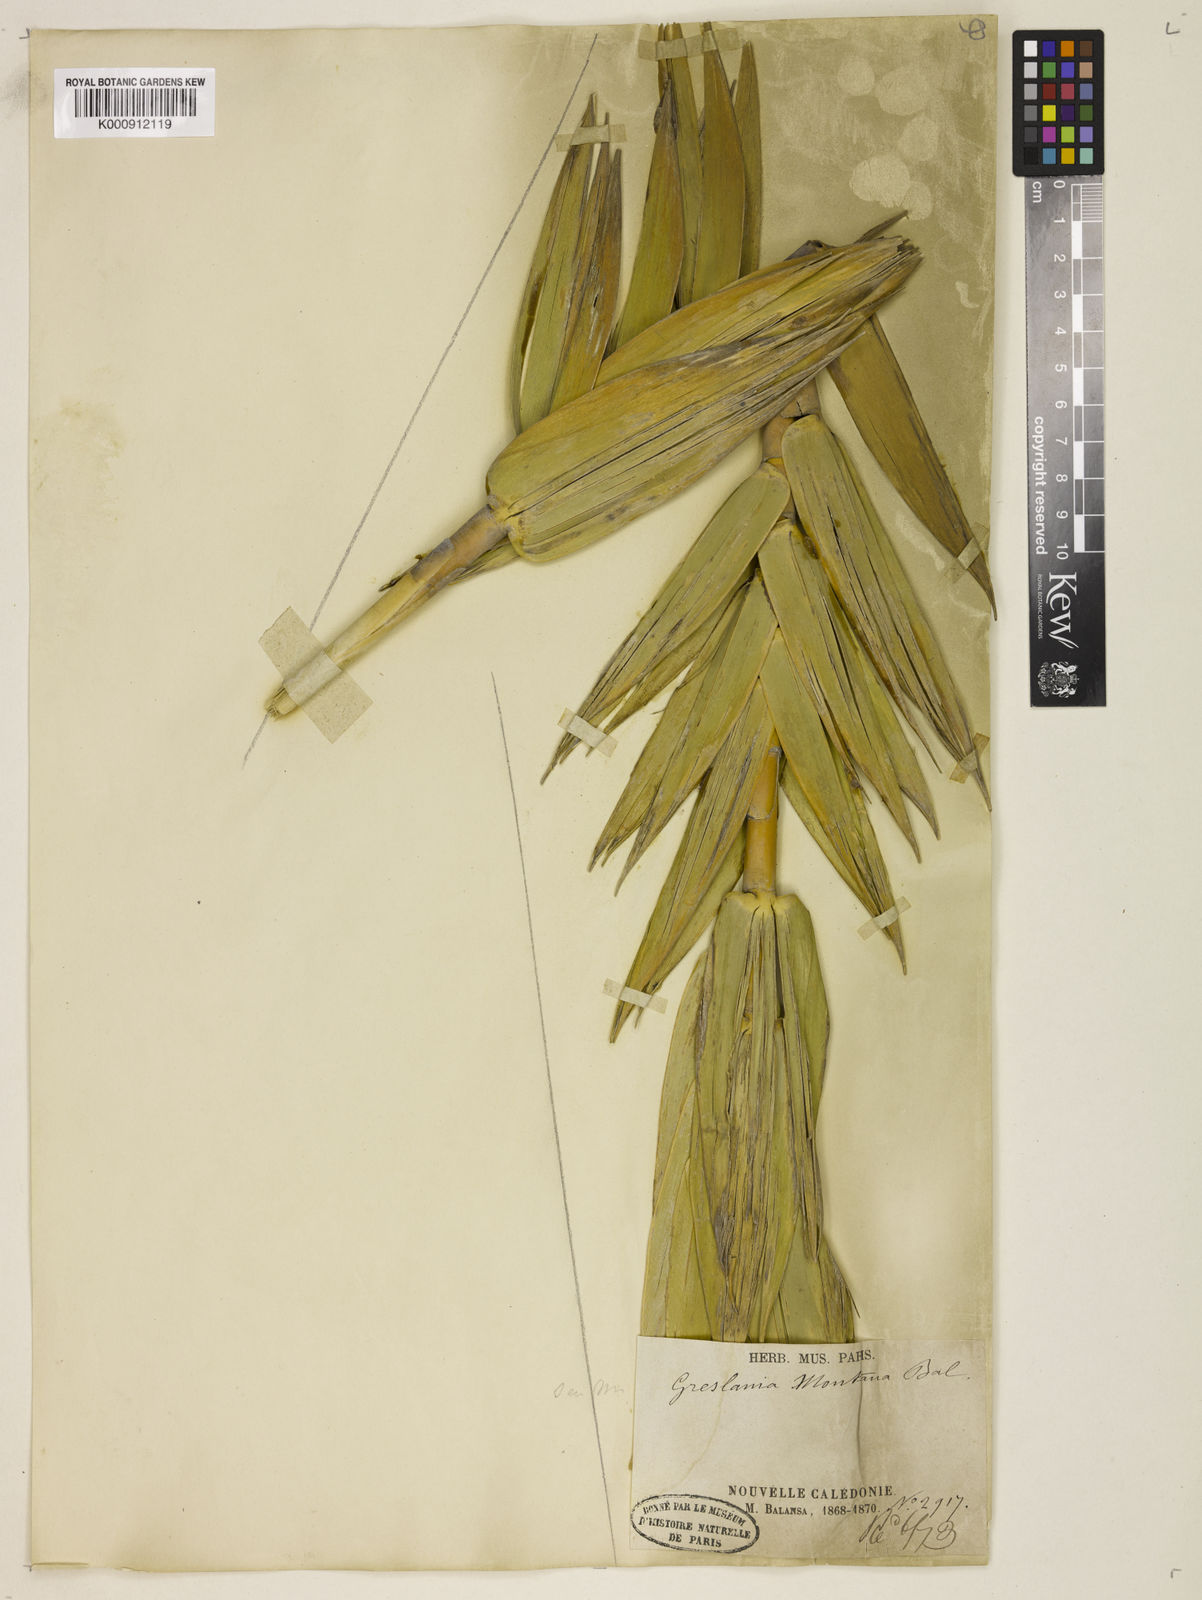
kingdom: Plantae
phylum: Tracheophyta
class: Liliopsida
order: Poales
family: Poaceae
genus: Greslania
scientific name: Greslania rivularis
